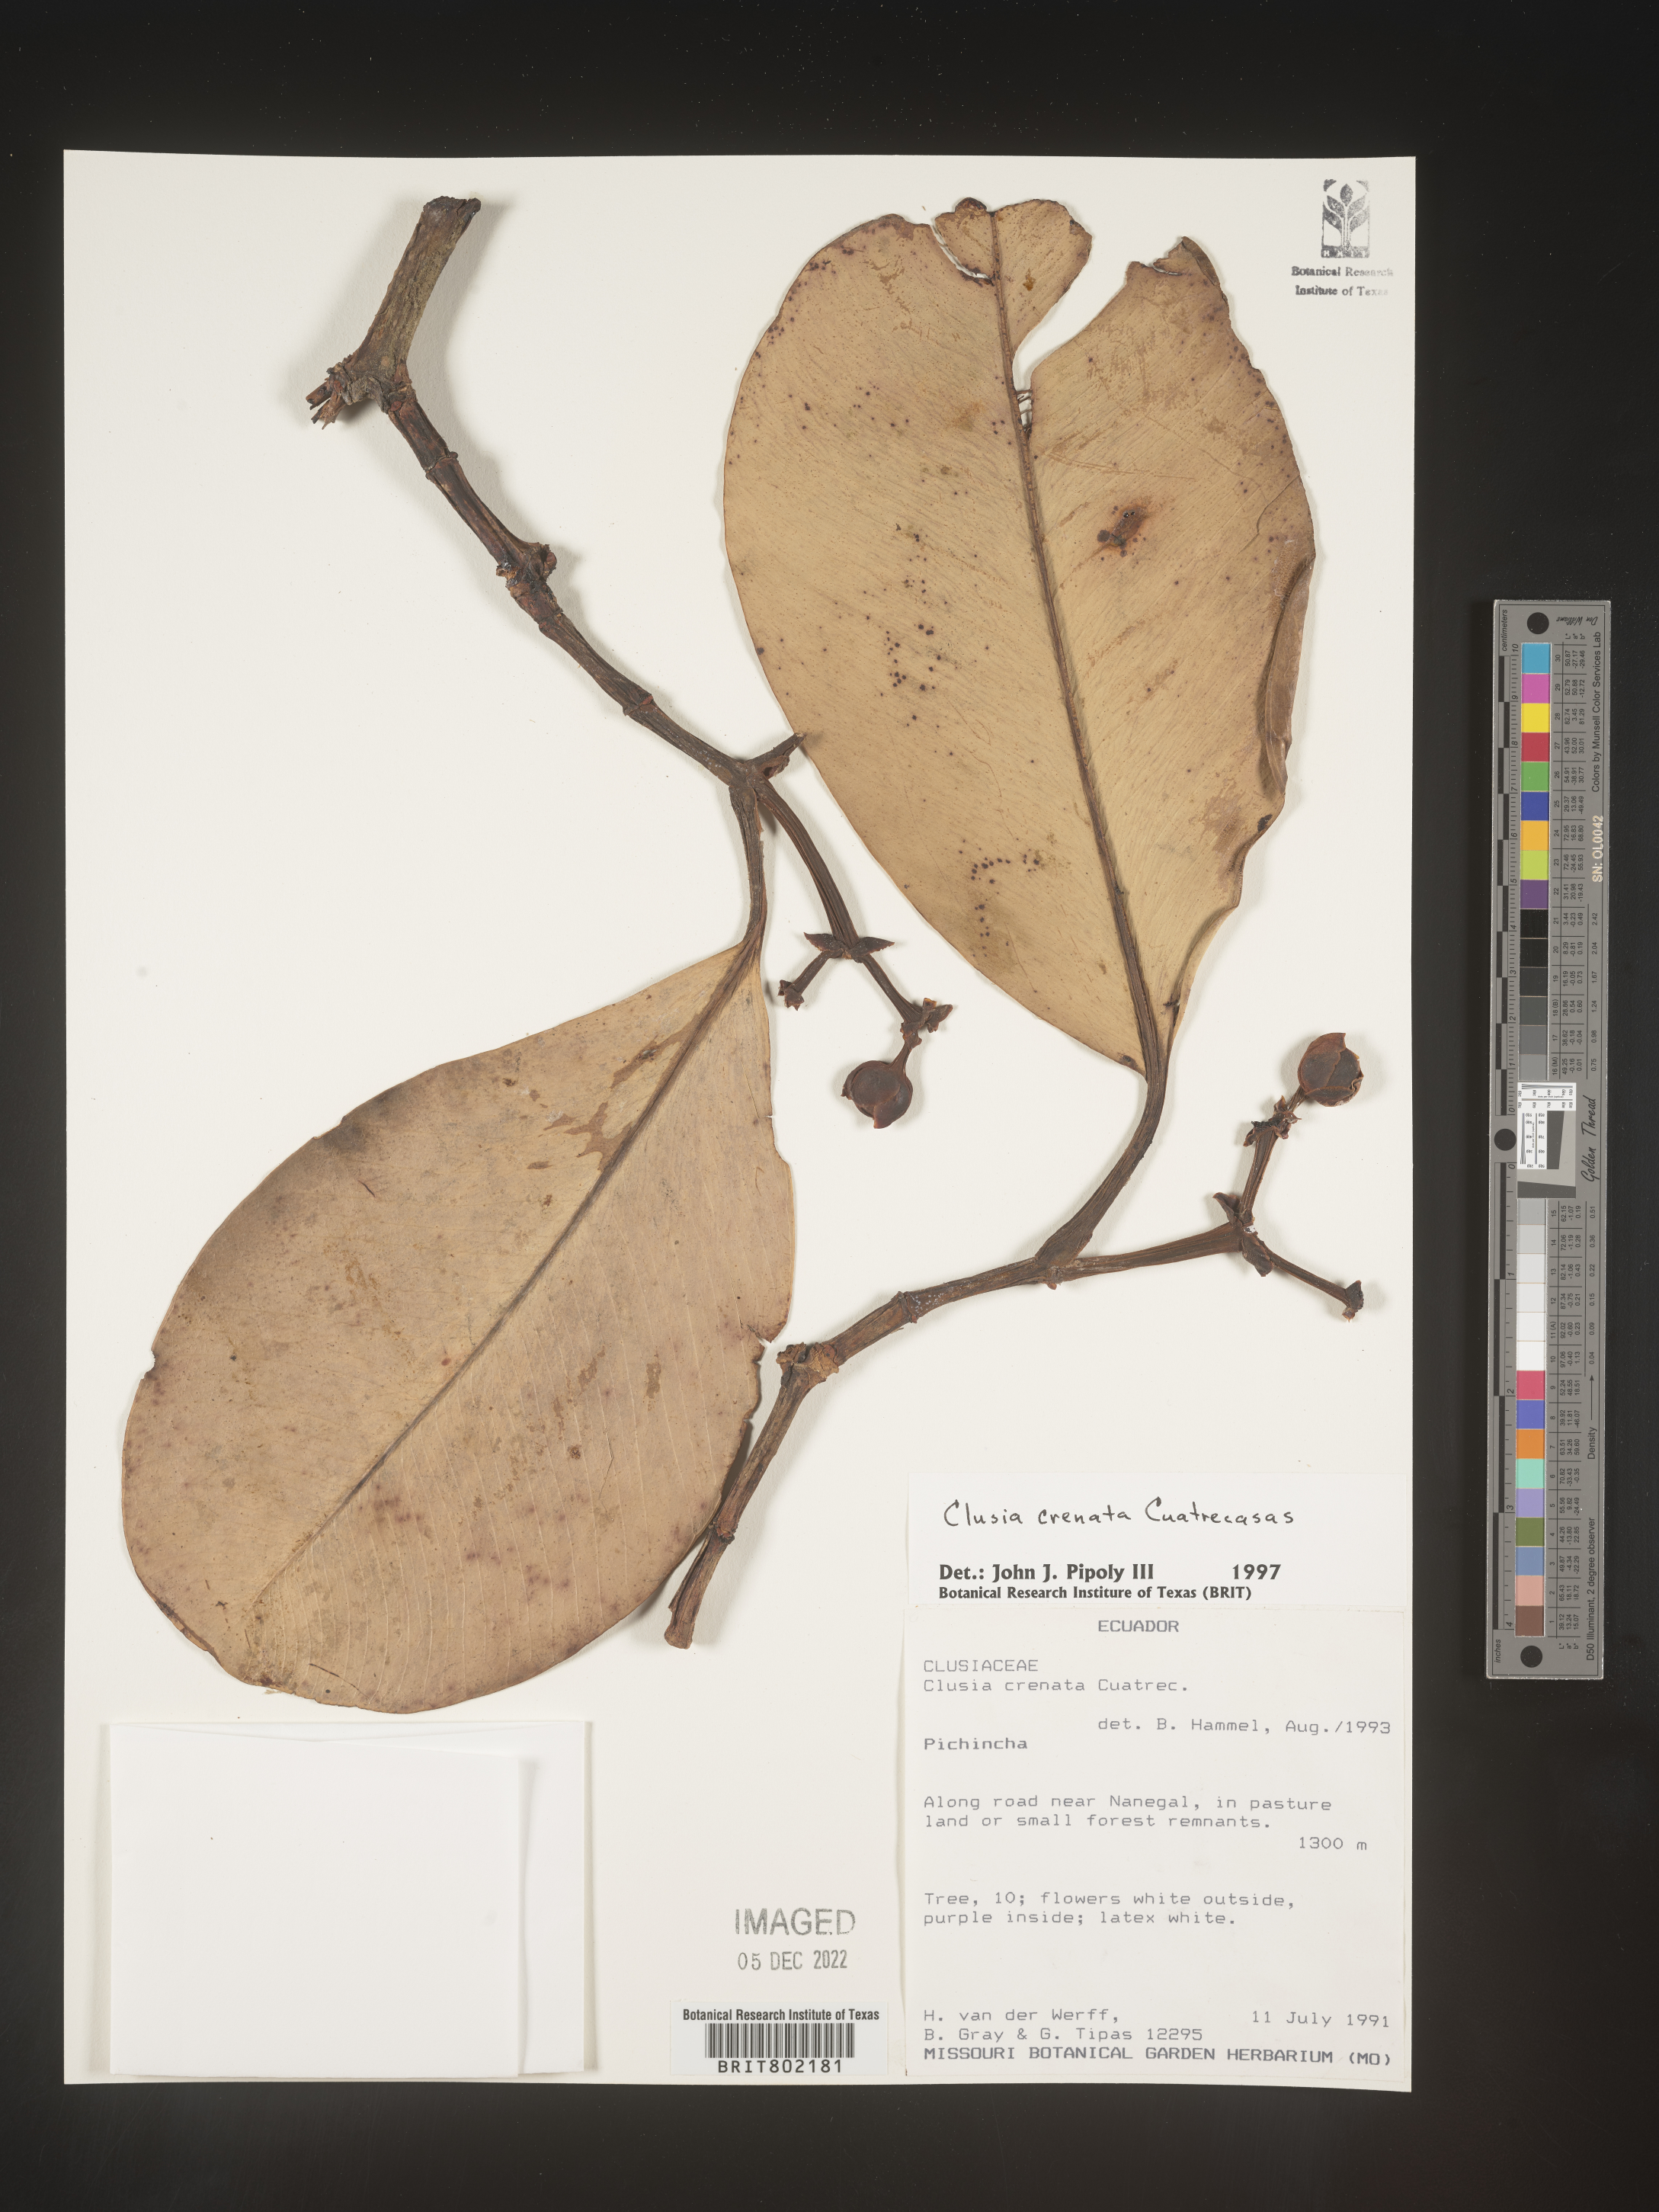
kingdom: Plantae
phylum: Tracheophyta
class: Magnoliopsida
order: Malpighiales
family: Clusiaceae
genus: Clusia
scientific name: Clusia
